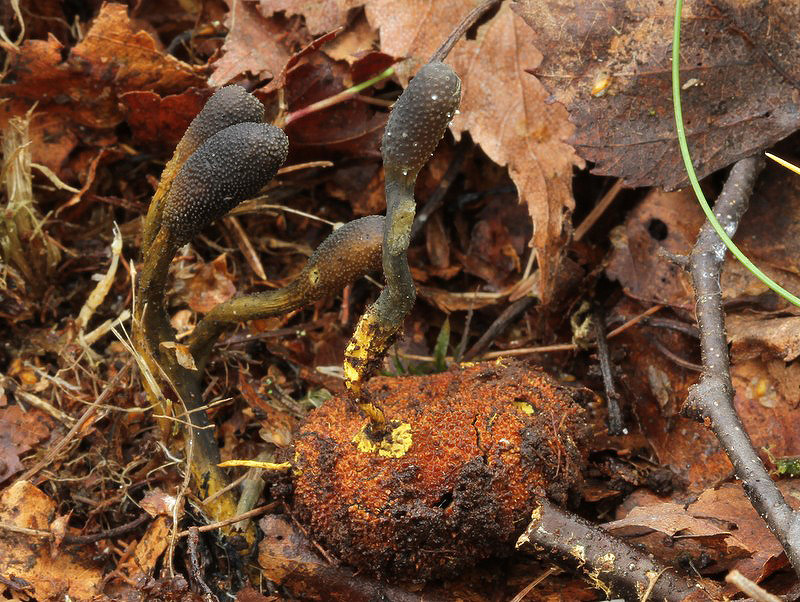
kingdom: Fungi
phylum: Ascomycota
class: Eurotiomycetes
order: Eurotiales
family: Elaphomycetaceae
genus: Elaphomyces
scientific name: Elaphomyces muricatus
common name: vortet hjortetrøffel
